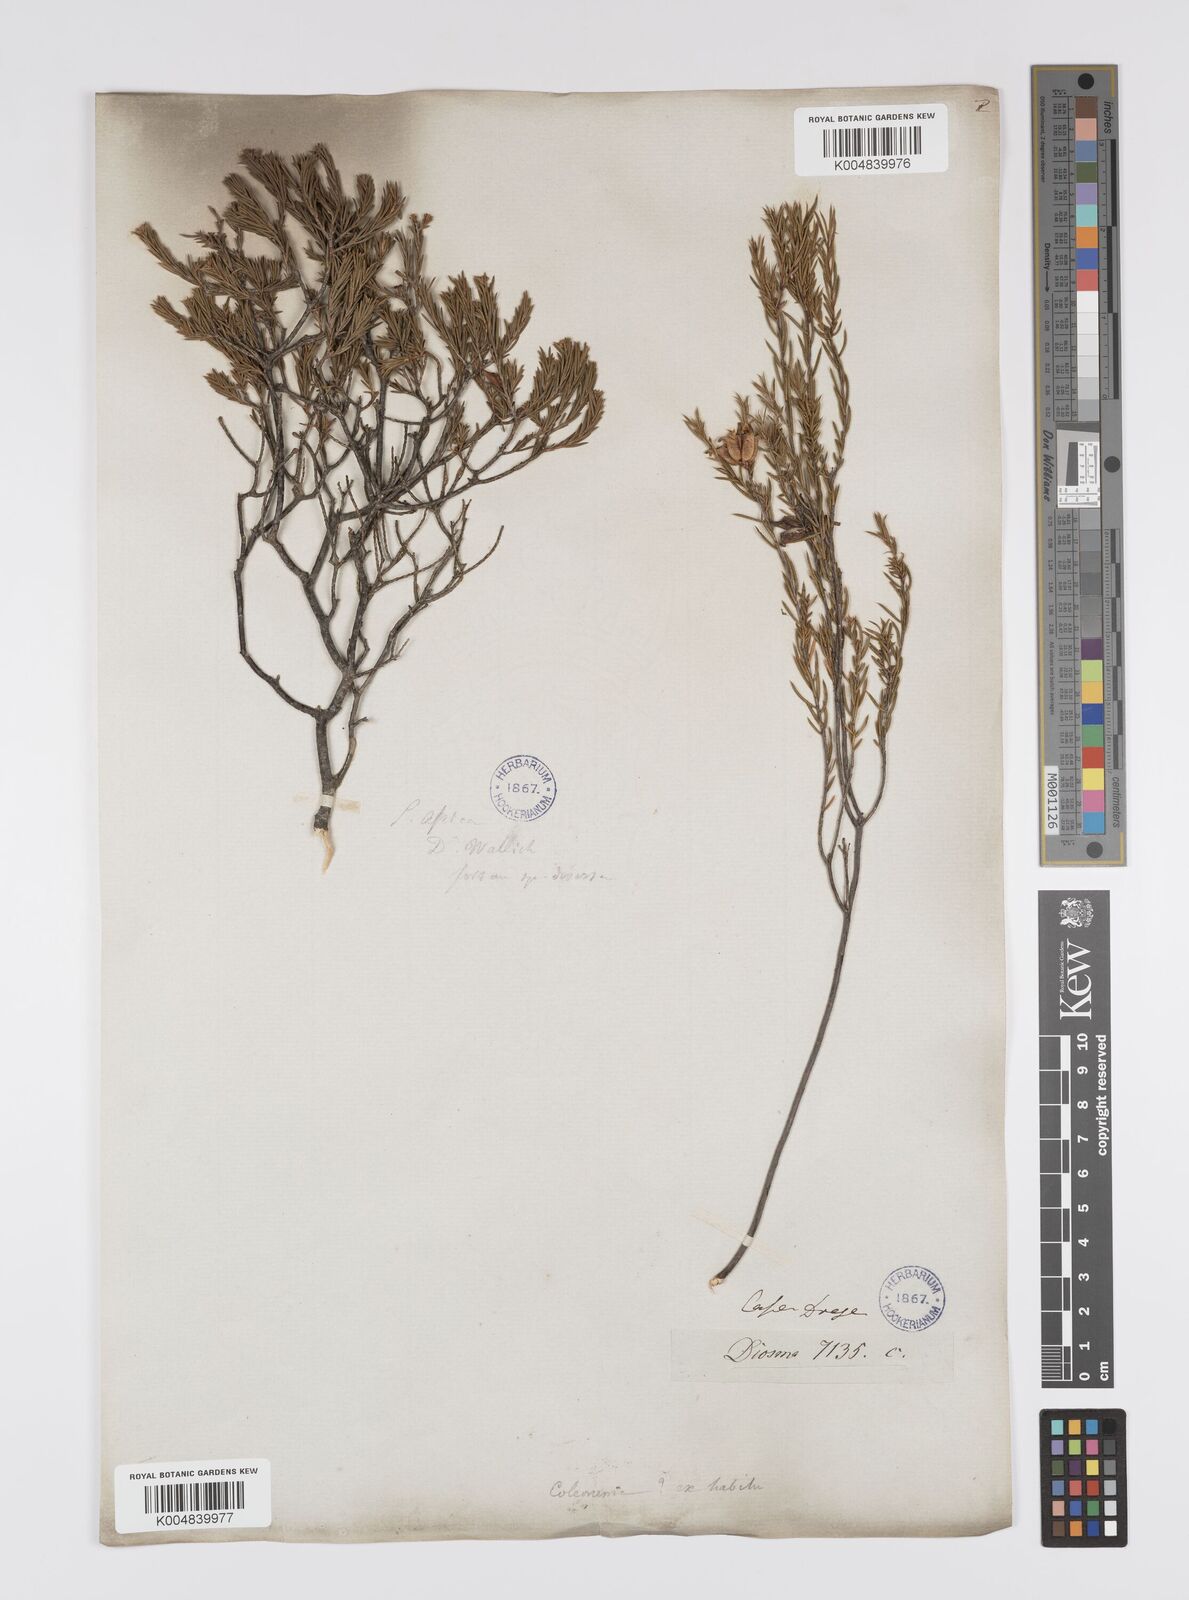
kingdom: Plantae
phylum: Tracheophyta
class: Magnoliopsida
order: Sapindales
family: Rutaceae
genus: Diosma
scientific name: Diosma acmaeophylla
